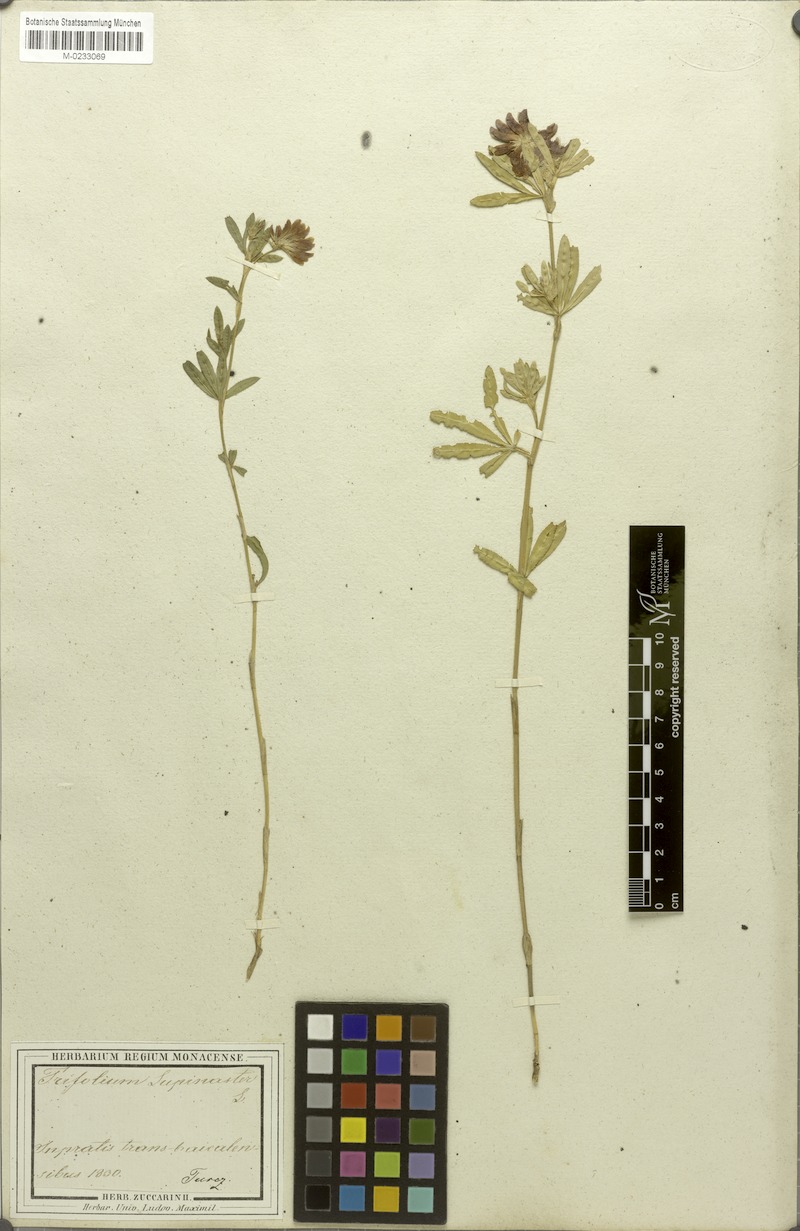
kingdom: Plantae
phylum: Tracheophyta
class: Magnoliopsida
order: Fabales
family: Fabaceae
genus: Trifolium
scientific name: Trifolium lupinaster
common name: Lupine clover
